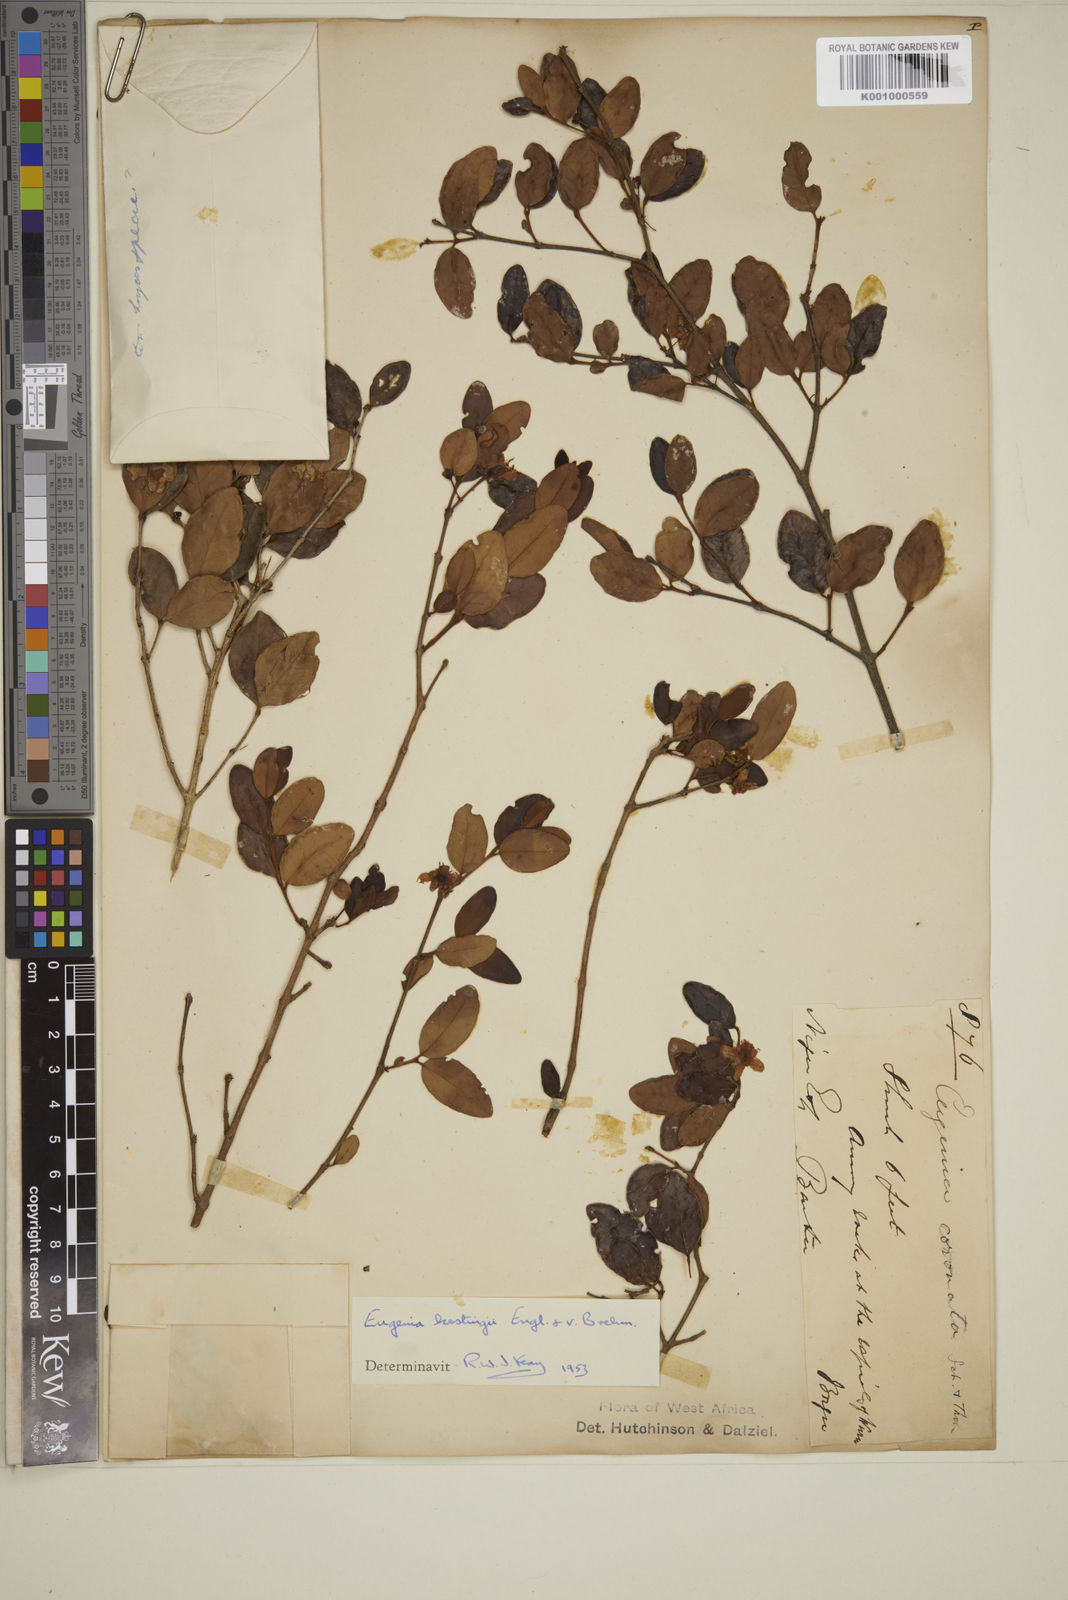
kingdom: Plantae
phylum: Tracheophyta
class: Magnoliopsida
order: Myrtales
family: Myrtaceae
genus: Eugenia
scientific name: Eugenia kerstingii
